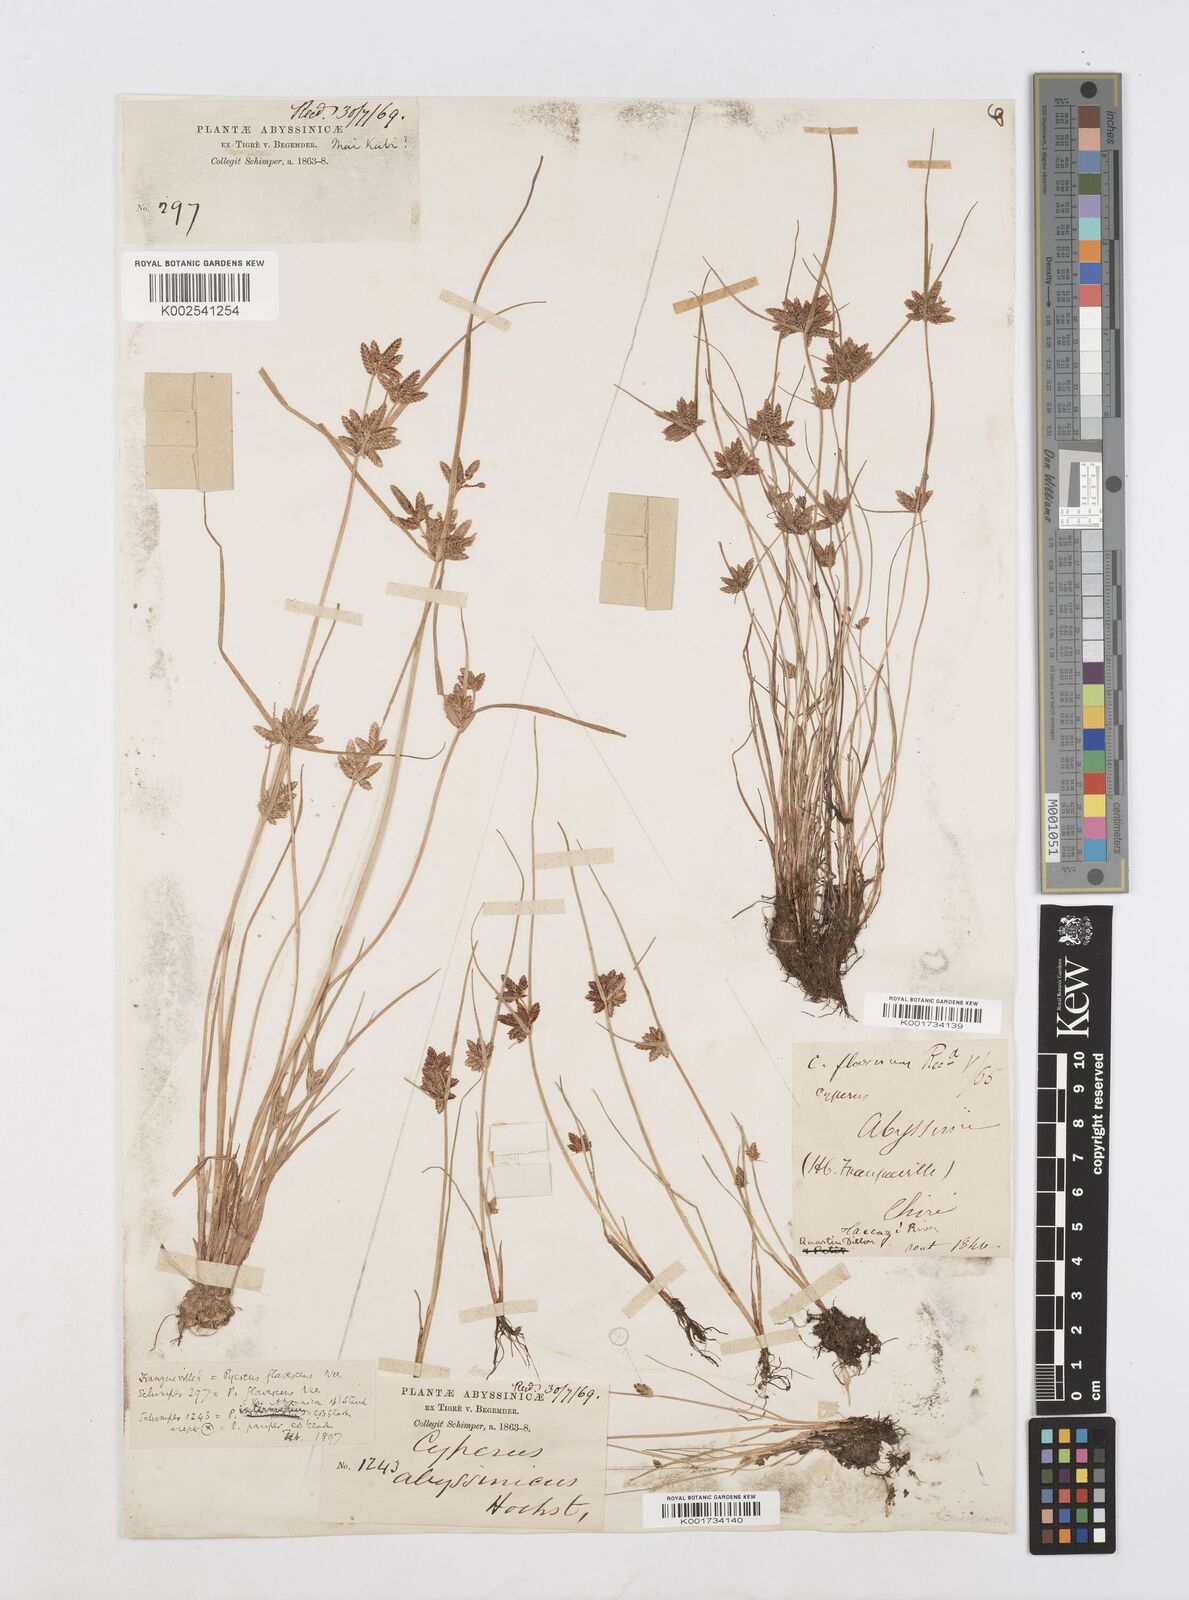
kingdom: Plantae
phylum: Tracheophyta
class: Liliopsida
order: Poales
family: Cyperaceae
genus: Cyperus
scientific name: Cyperus flavescens
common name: Yellow galingale
